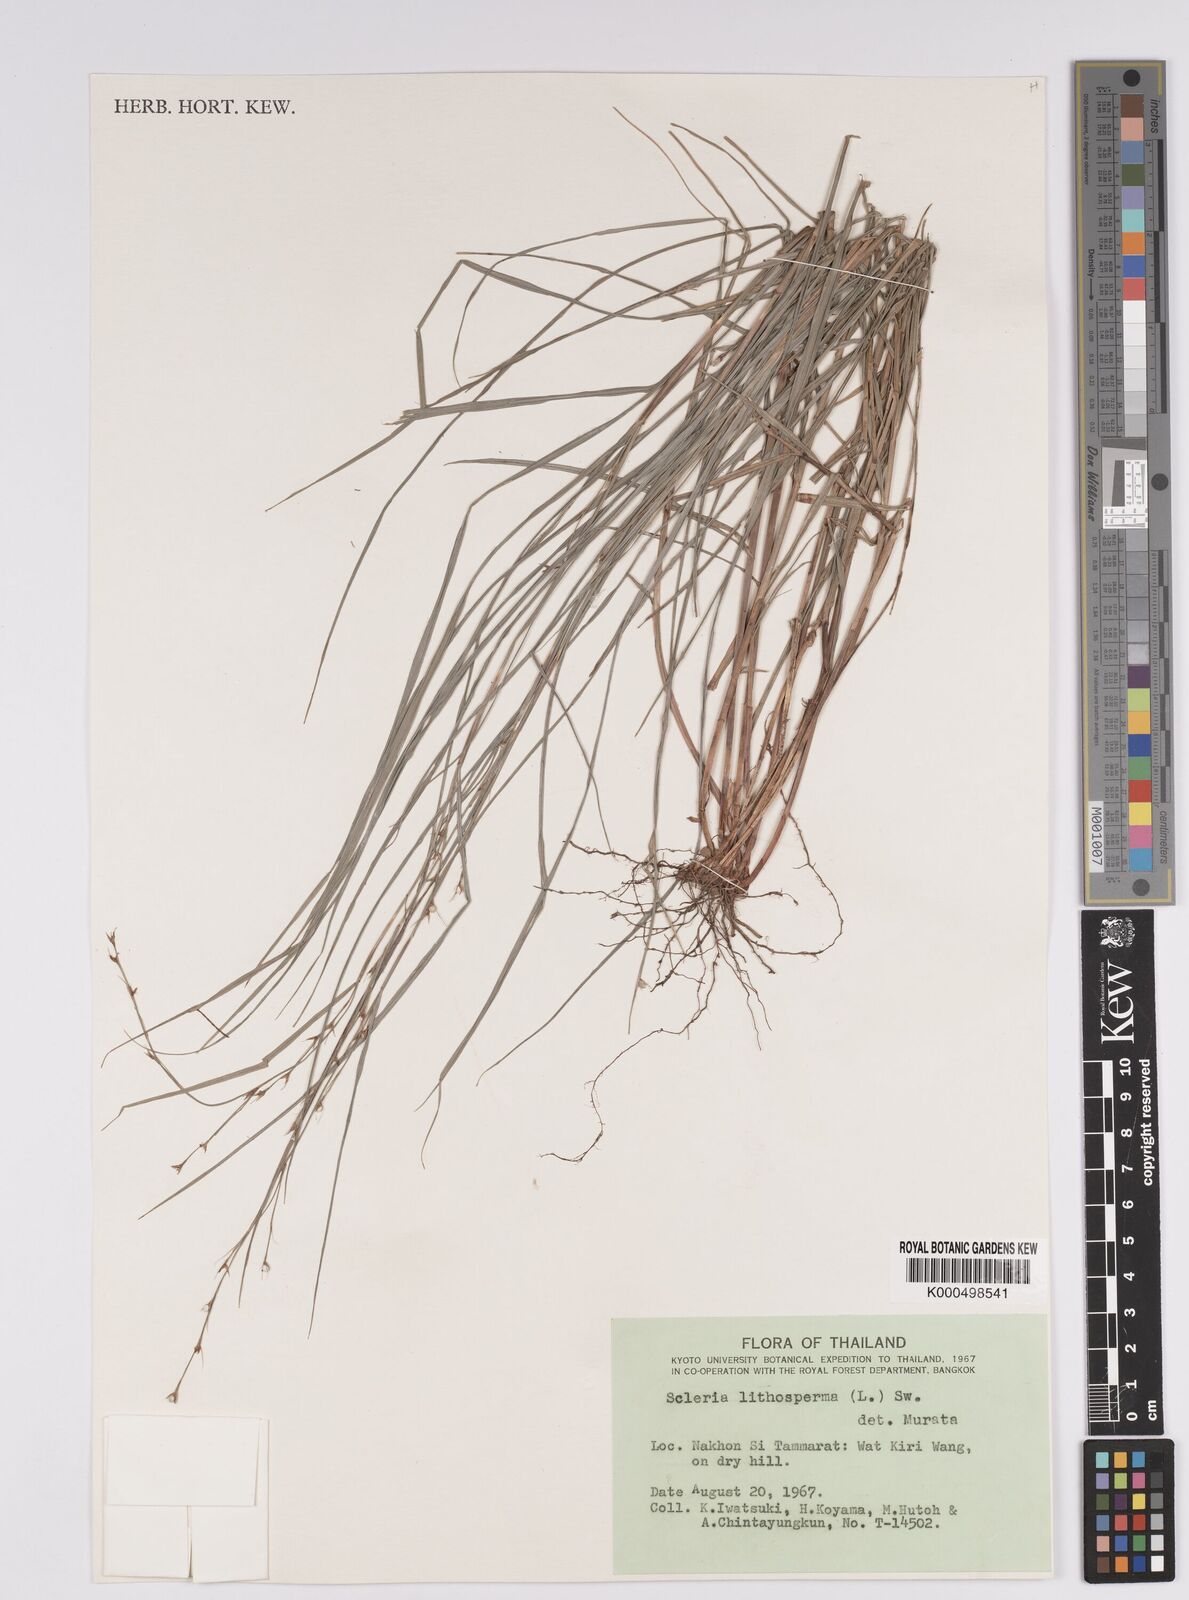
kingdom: Plantae
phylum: Tracheophyta
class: Liliopsida
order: Poales
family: Cyperaceae
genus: Scleria
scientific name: Scleria lithosperma
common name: Florida keys nut-rush
